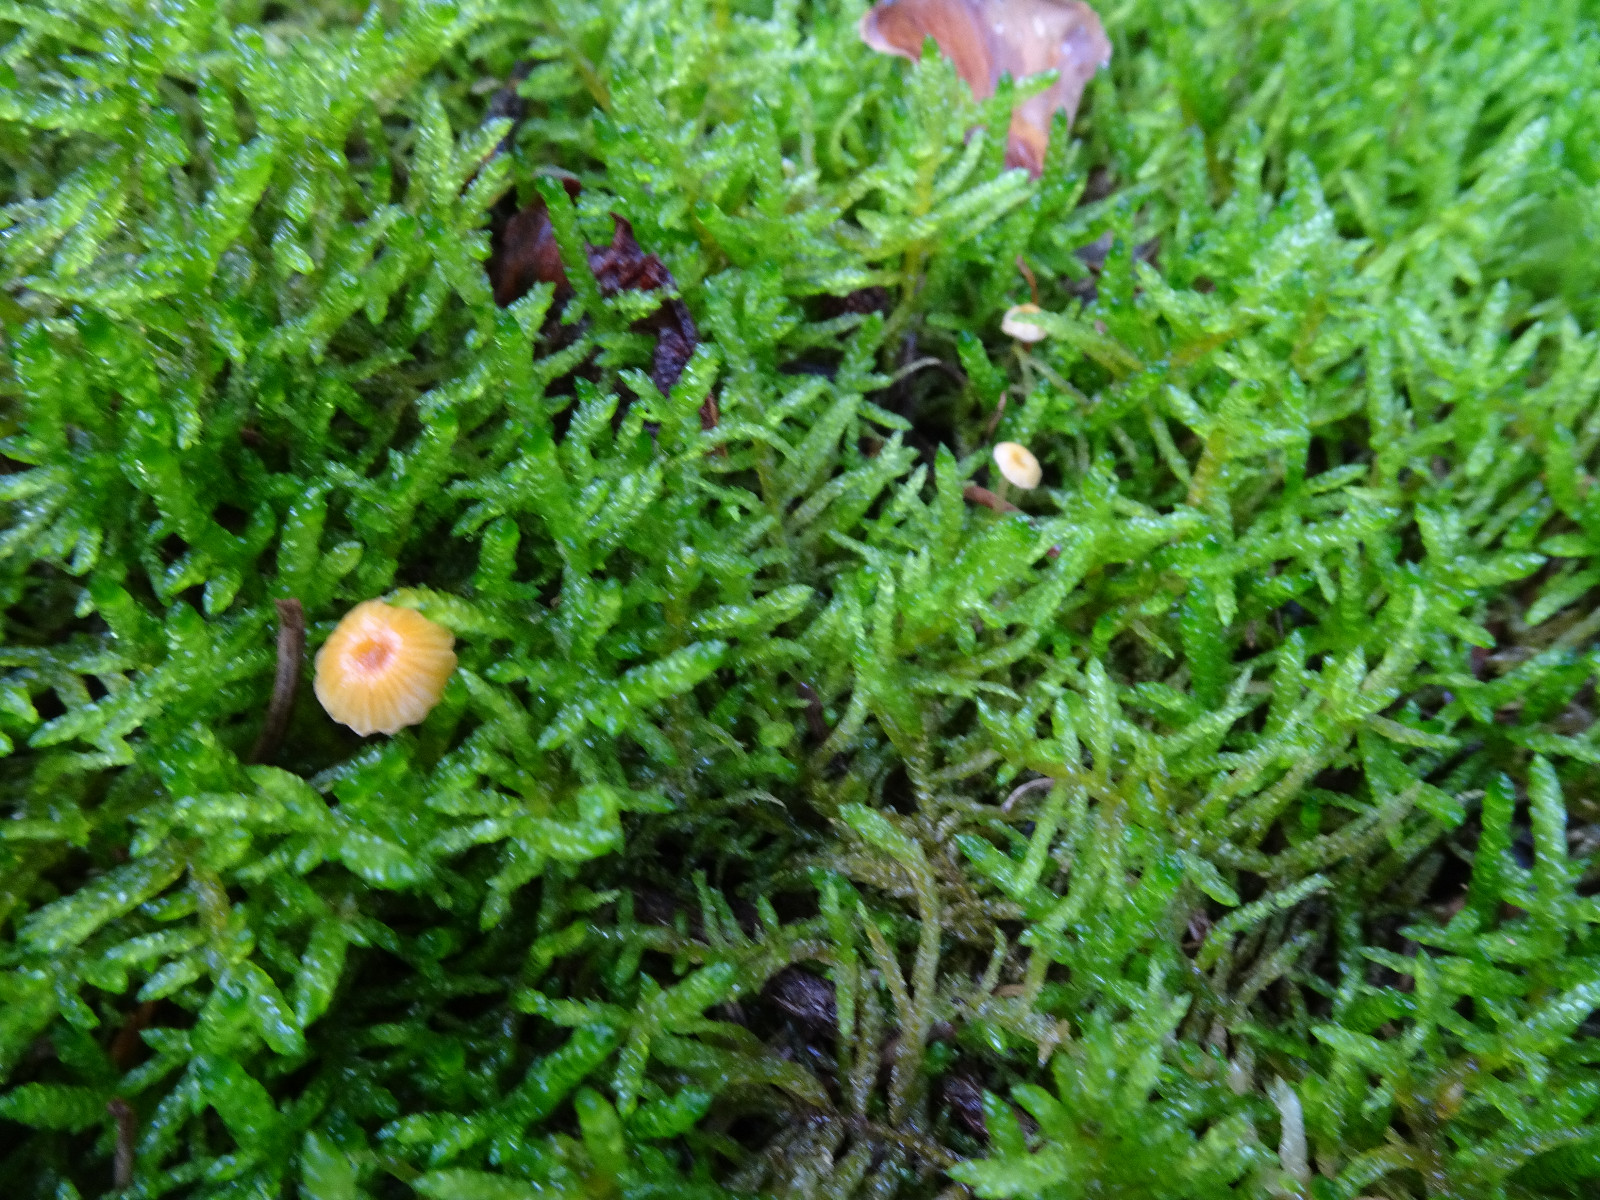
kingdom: Fungi
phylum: Basidiomycota
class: Agaricomycetes
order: Hymenochaetales
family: Rickenellaceae
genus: Rickenella
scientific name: Rickenella fibula
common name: orange mosnavlehat
